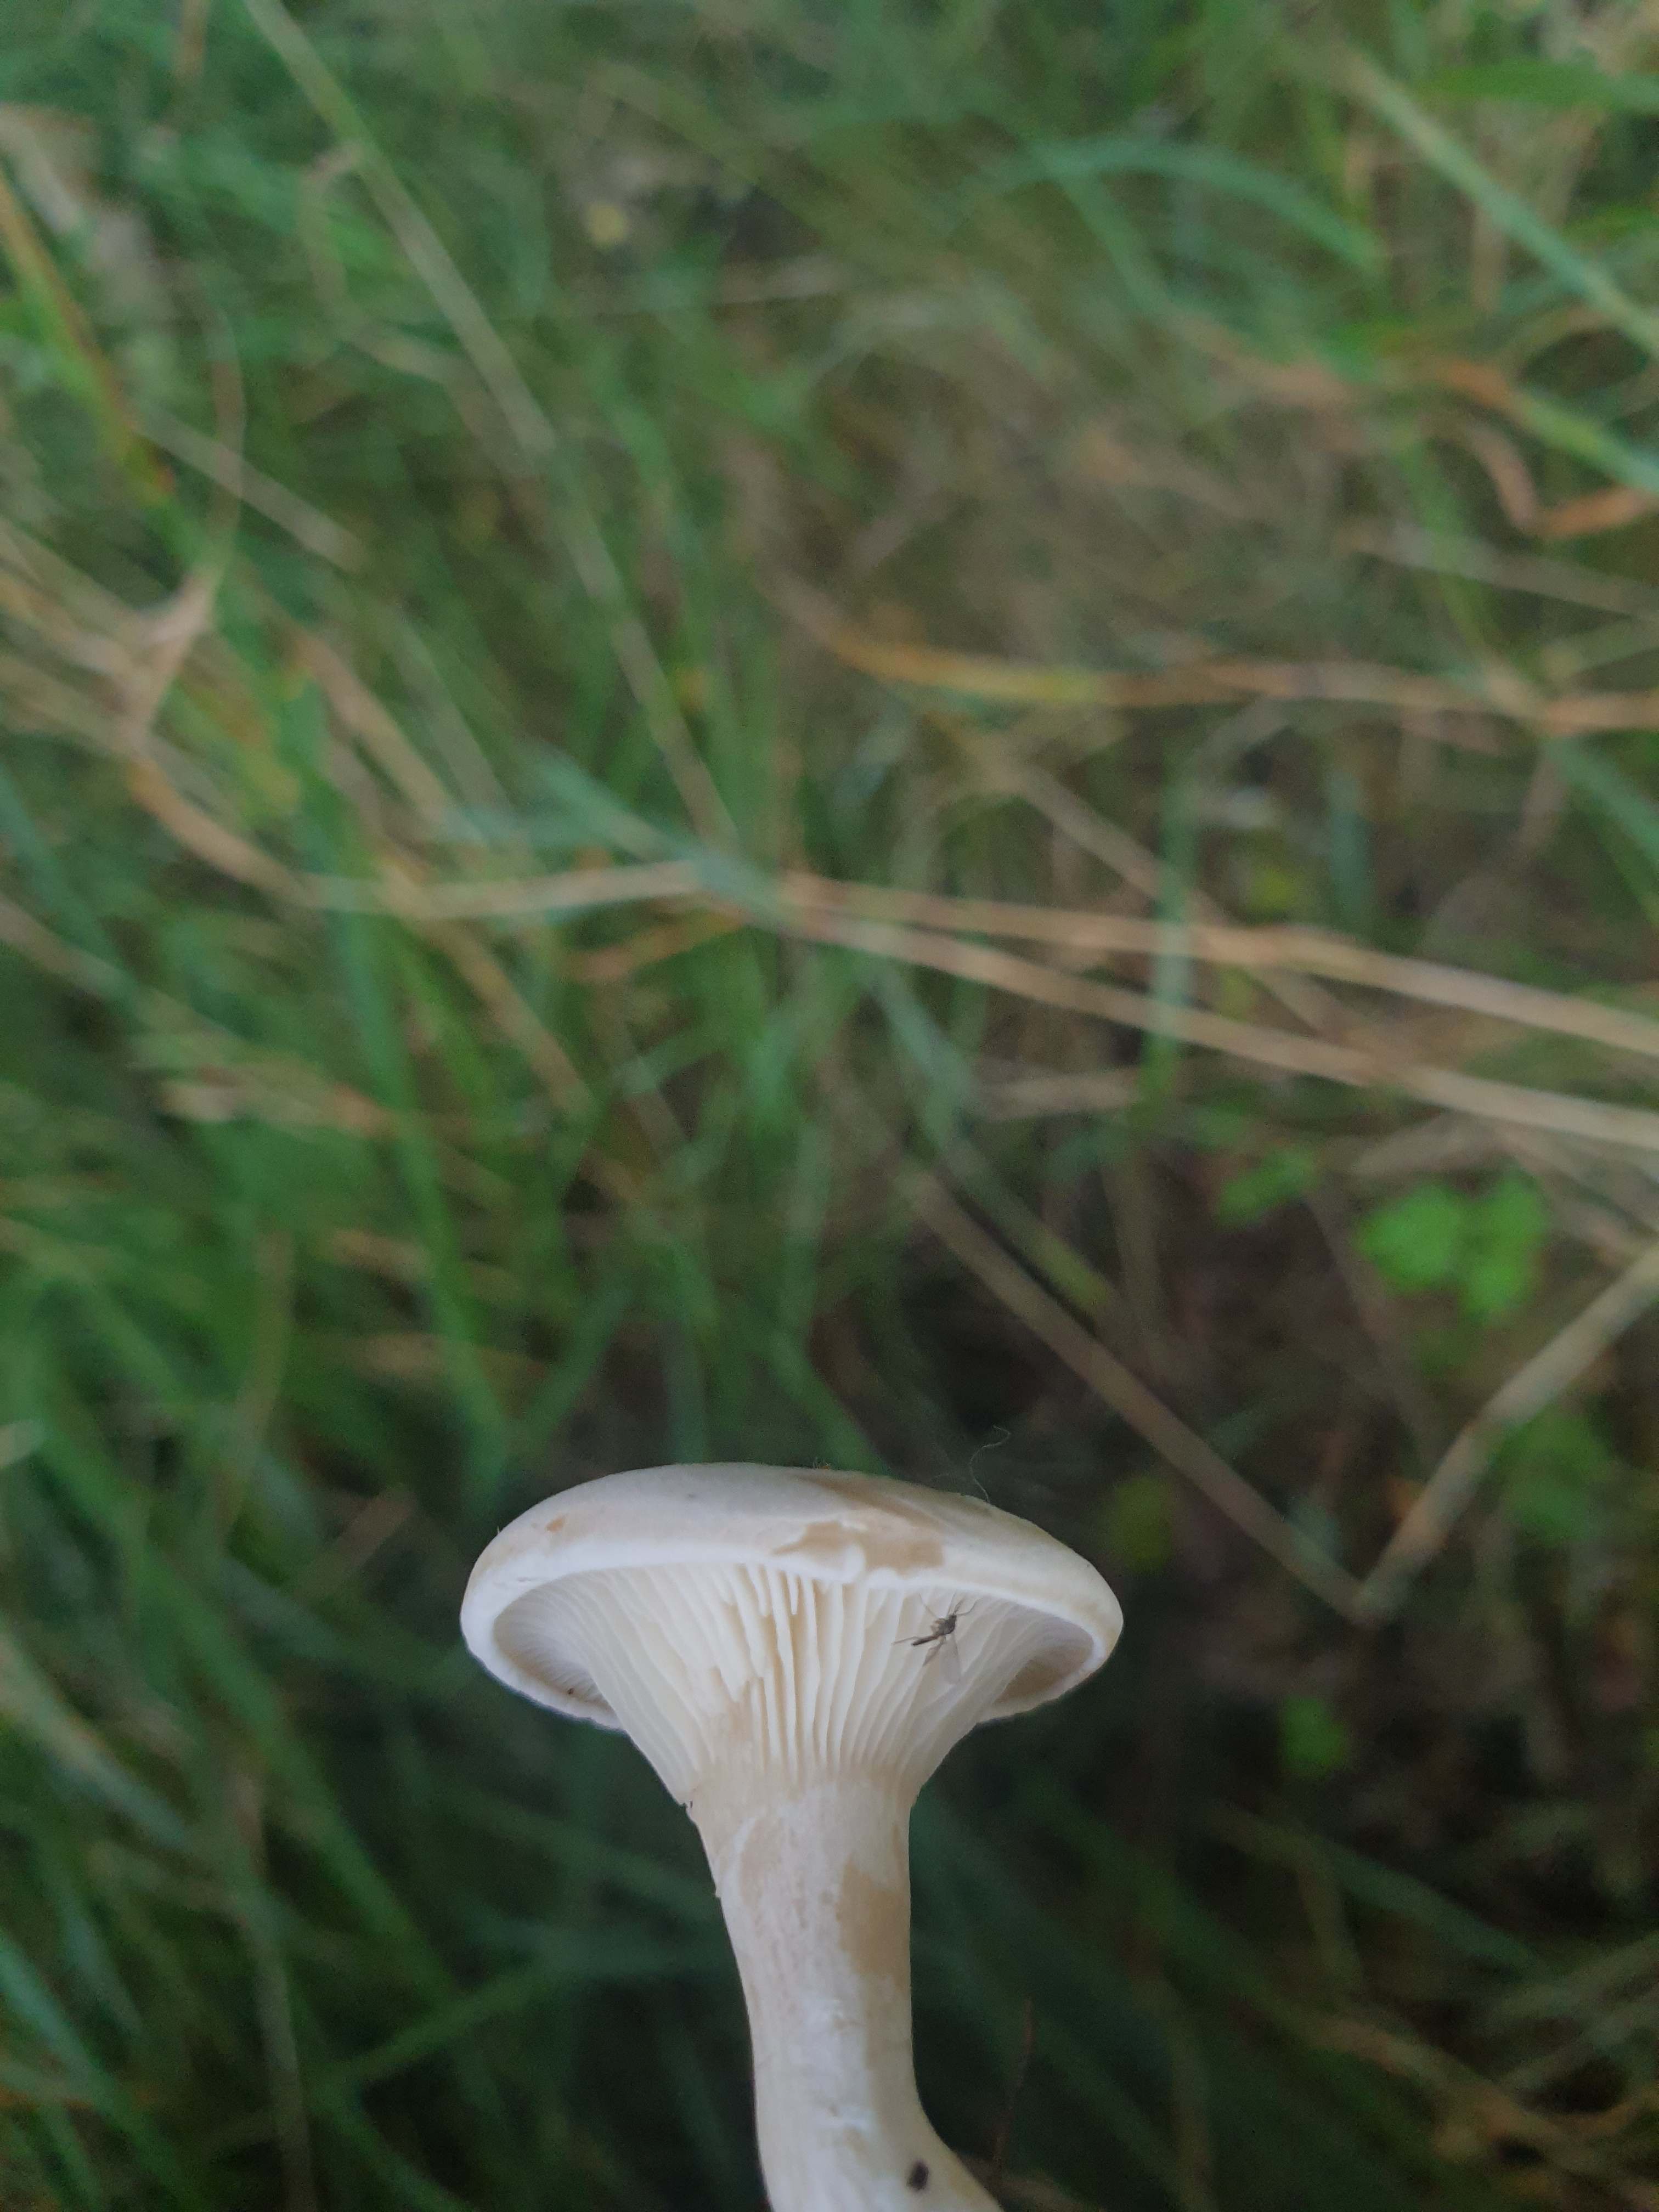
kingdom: Fungi
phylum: Basidiomycota
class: Agaricomycetes
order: Agaricales
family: Entolomataceae
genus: Clitopilus
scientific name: Clitopilus prunulus
